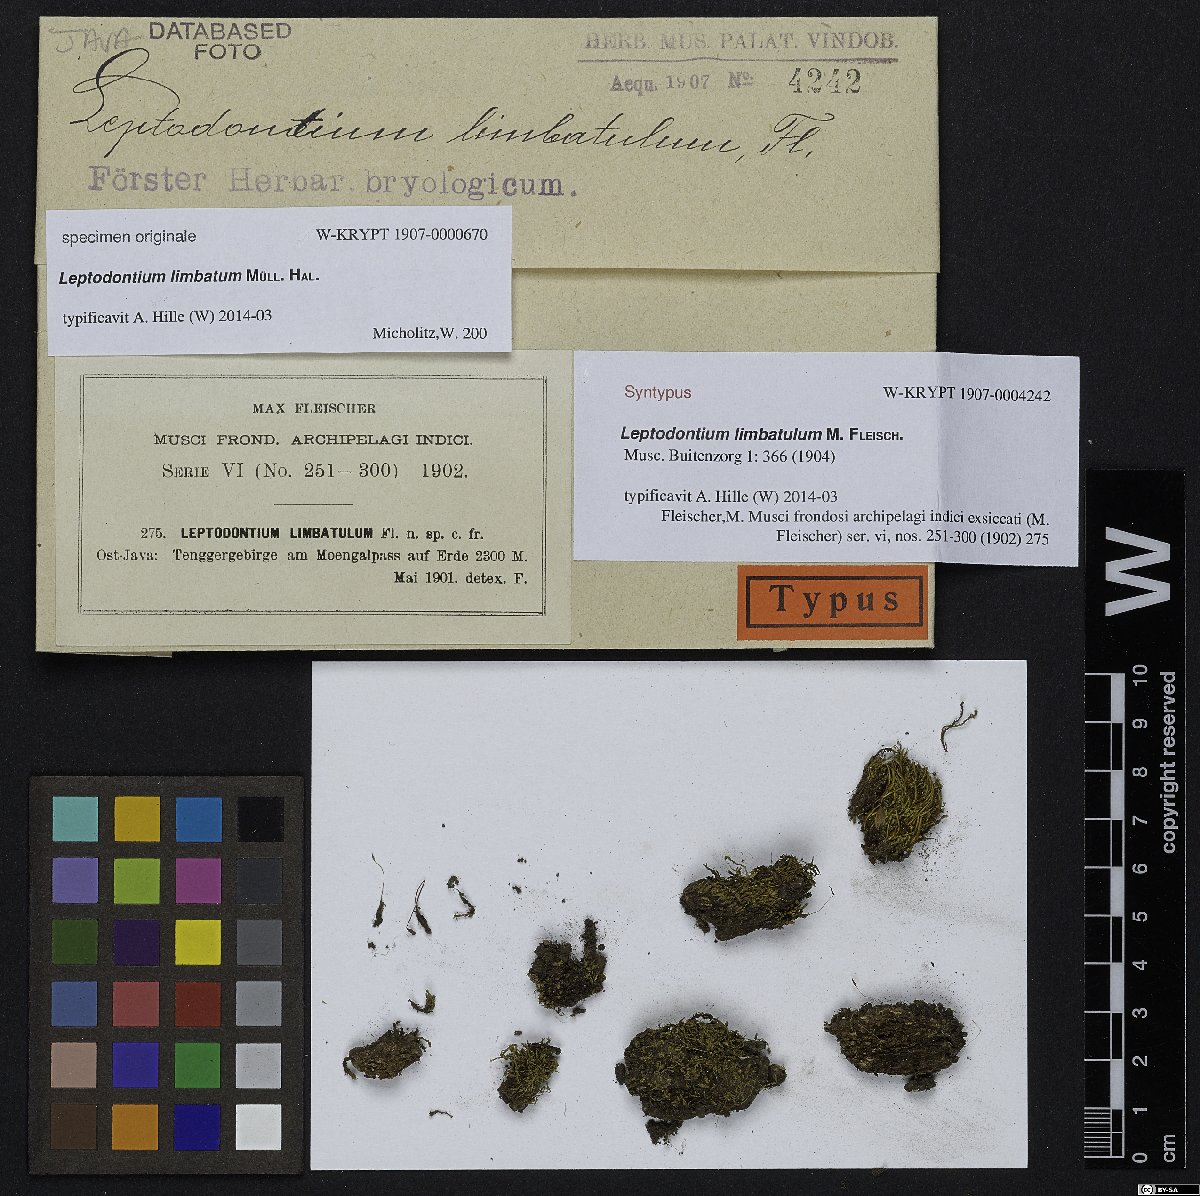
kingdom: Plantae
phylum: Bryophyta
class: Bryopsida
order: Pottiales
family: Pottiaceae
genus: Leptodontium
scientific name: Leptodontium flexifolium
